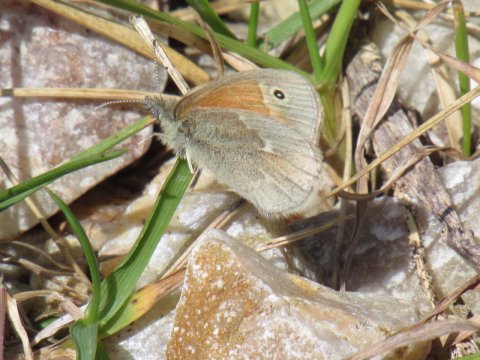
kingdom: Animalia
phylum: Arthropoda
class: Insecta
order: Lepidoptera
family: Nymphalidae
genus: Coenonympha
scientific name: Coenonympha tullia
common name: Large Heath
